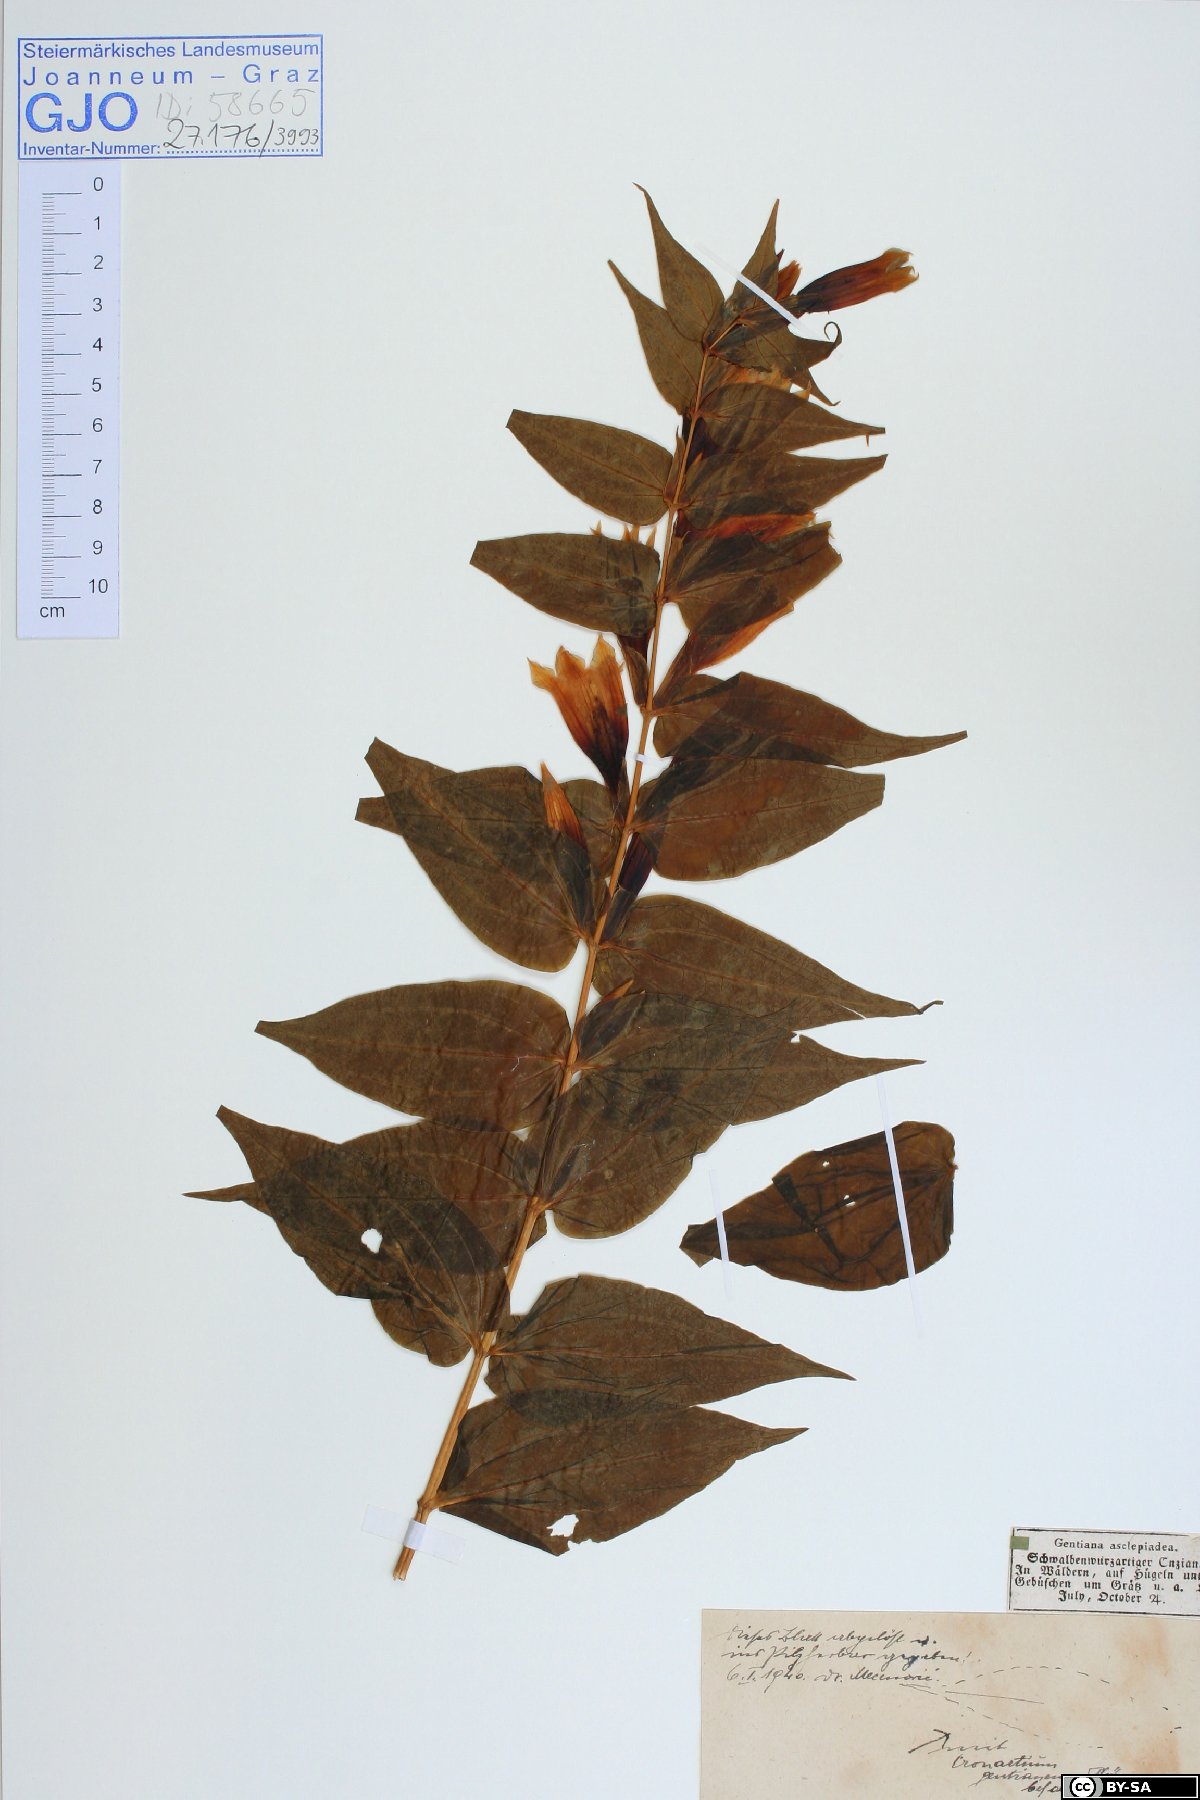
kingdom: Plantae
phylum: Tracheophyta
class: Magnoliopsida
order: Gentianales
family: Gentianaceae
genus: Gentiana
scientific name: Gentiana asclepiadea
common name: Willow gentian
